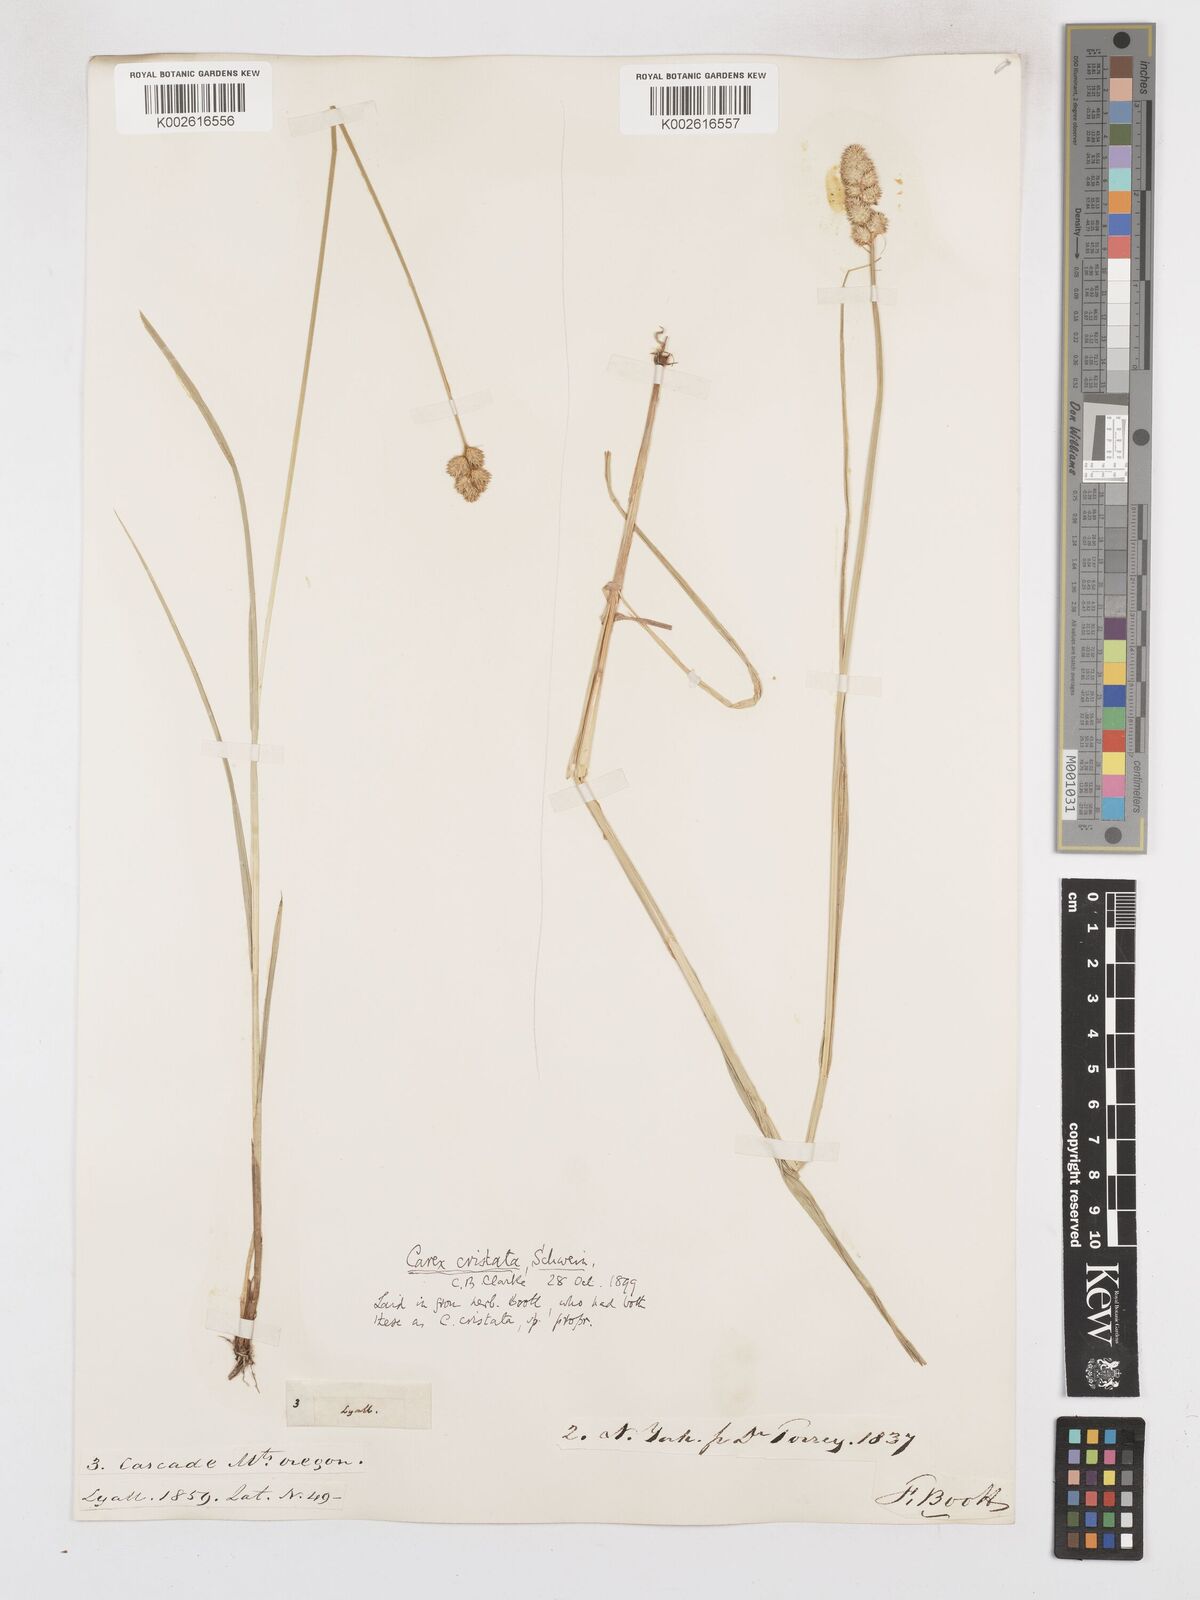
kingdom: Plantae
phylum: Tracheophyta
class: Liliopsida
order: Poales
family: Cyperaceae
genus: Carex
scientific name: Carex cristatella
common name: Crested oval sedge
